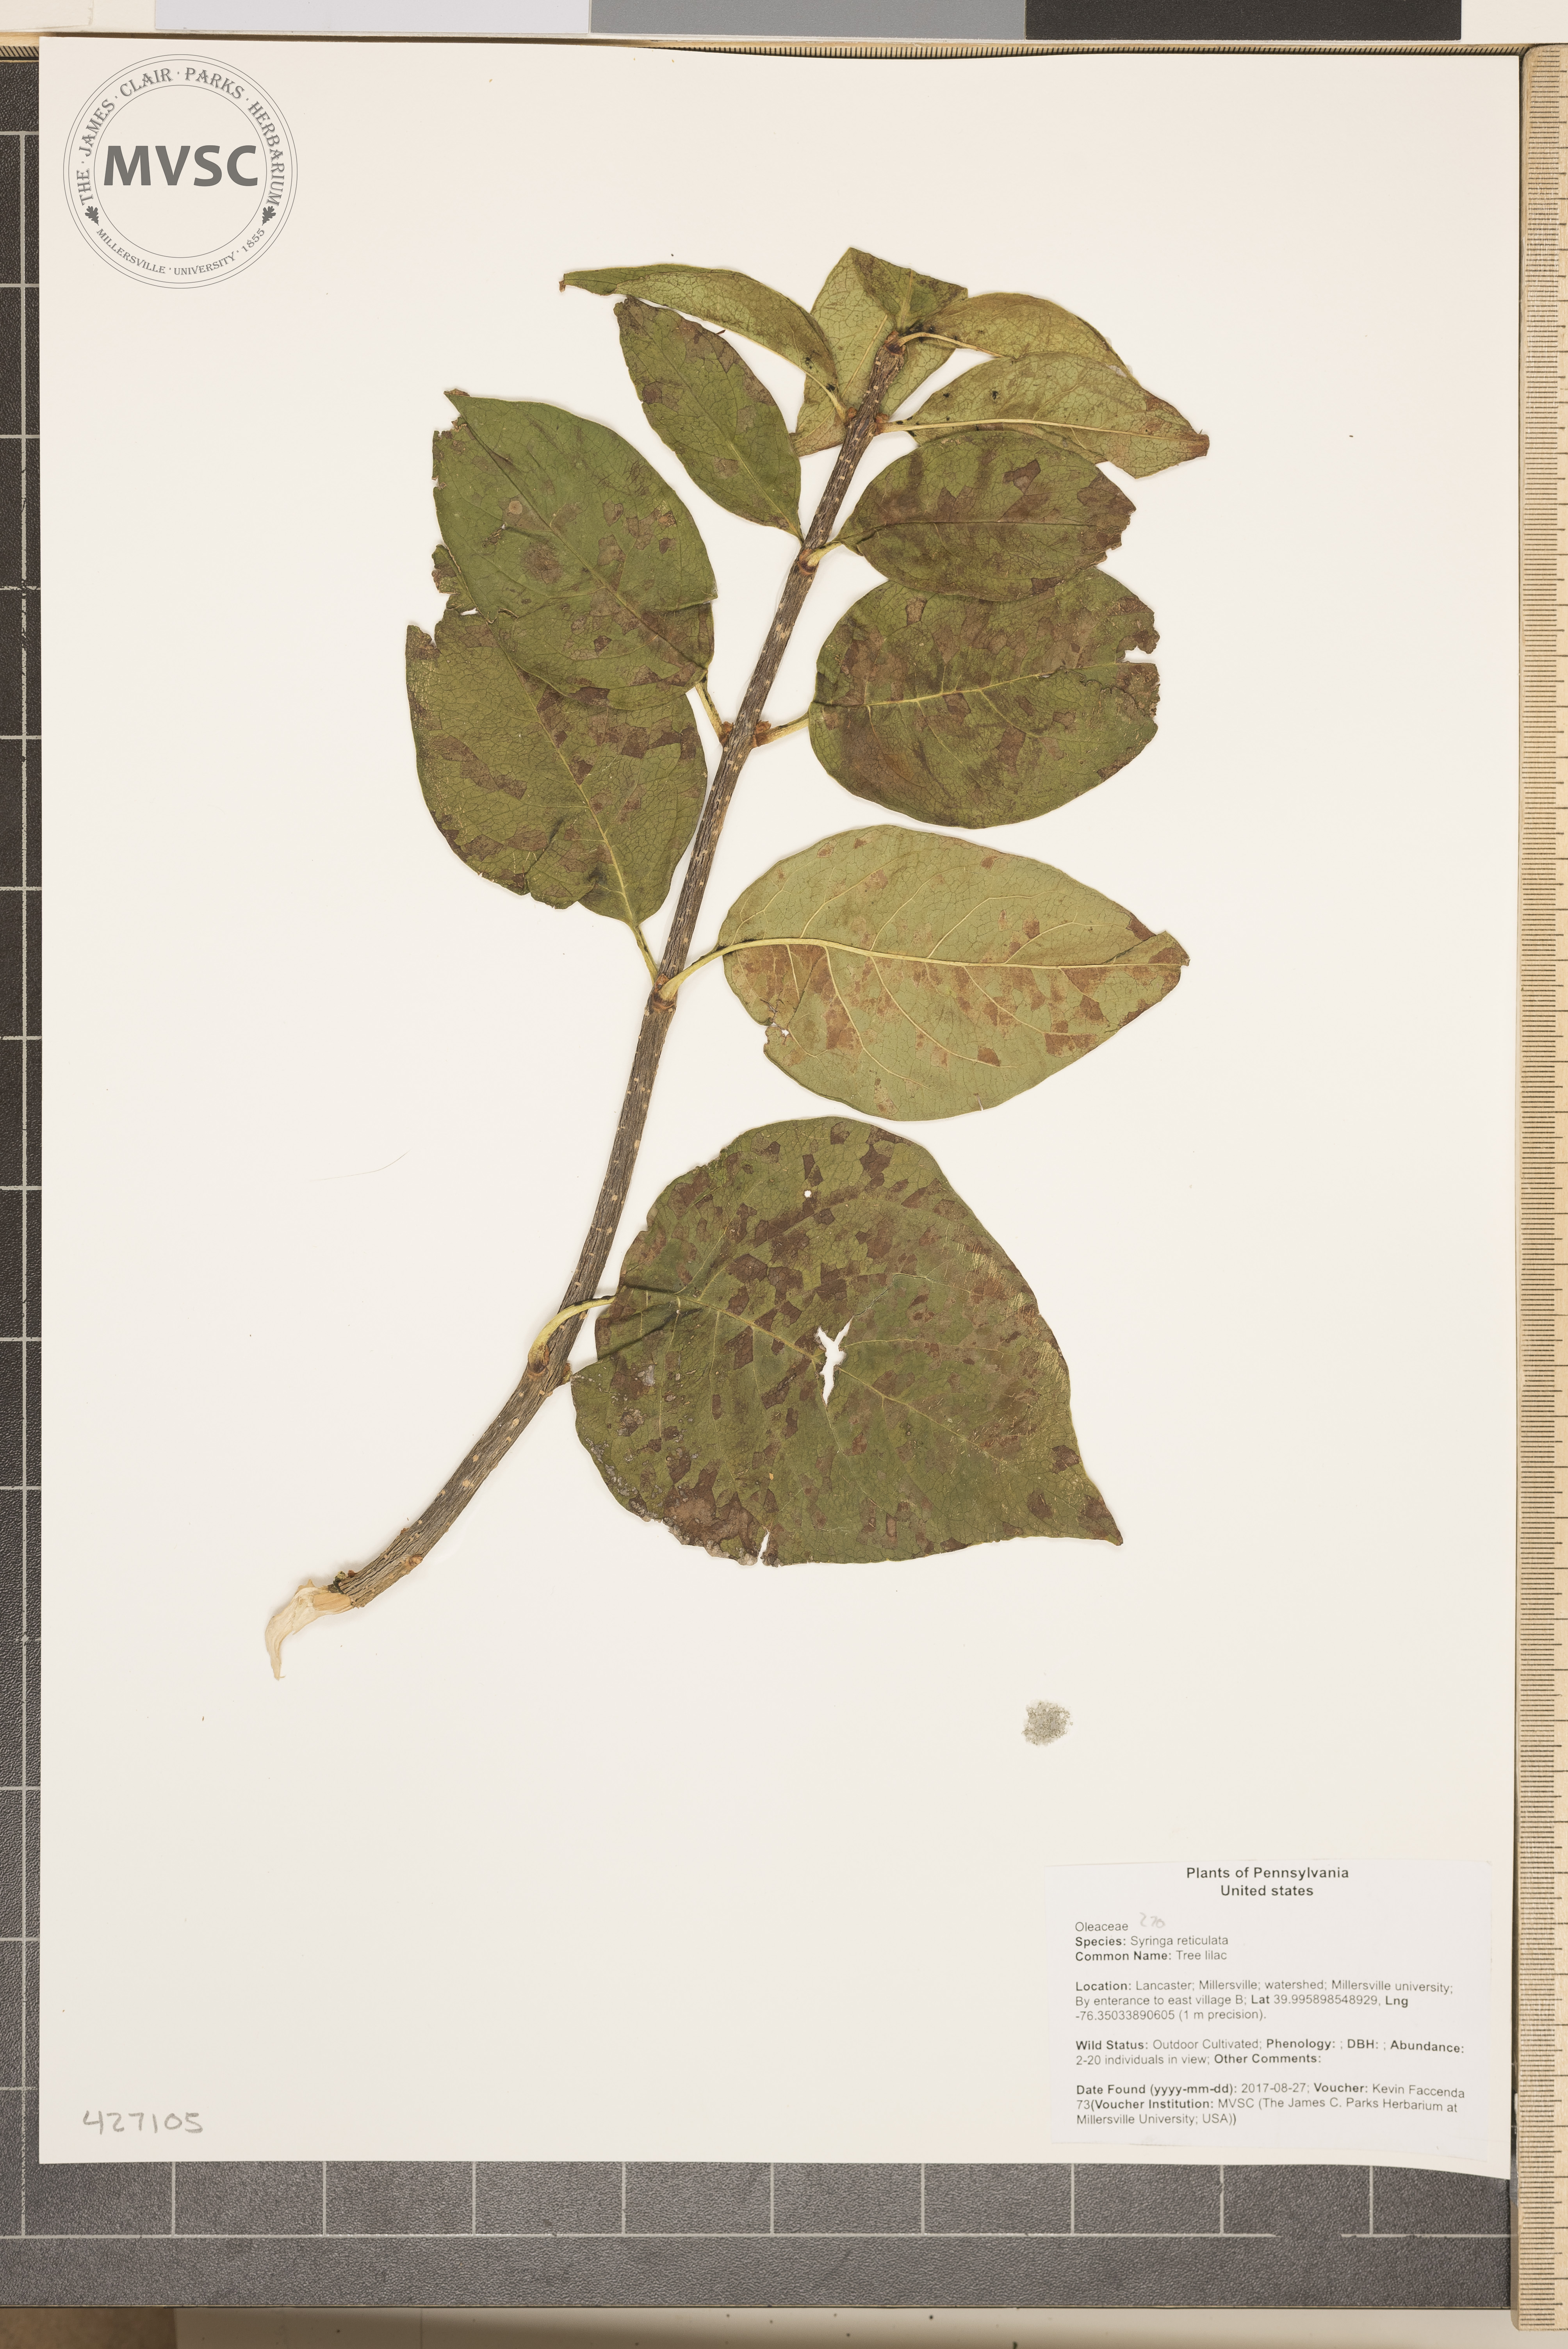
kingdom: Plantae
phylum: Tracheophyta
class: Magnoliopsida
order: Lamiales
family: Oleaceae
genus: Syringa
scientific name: Syringa reticulata
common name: Tree lilac
